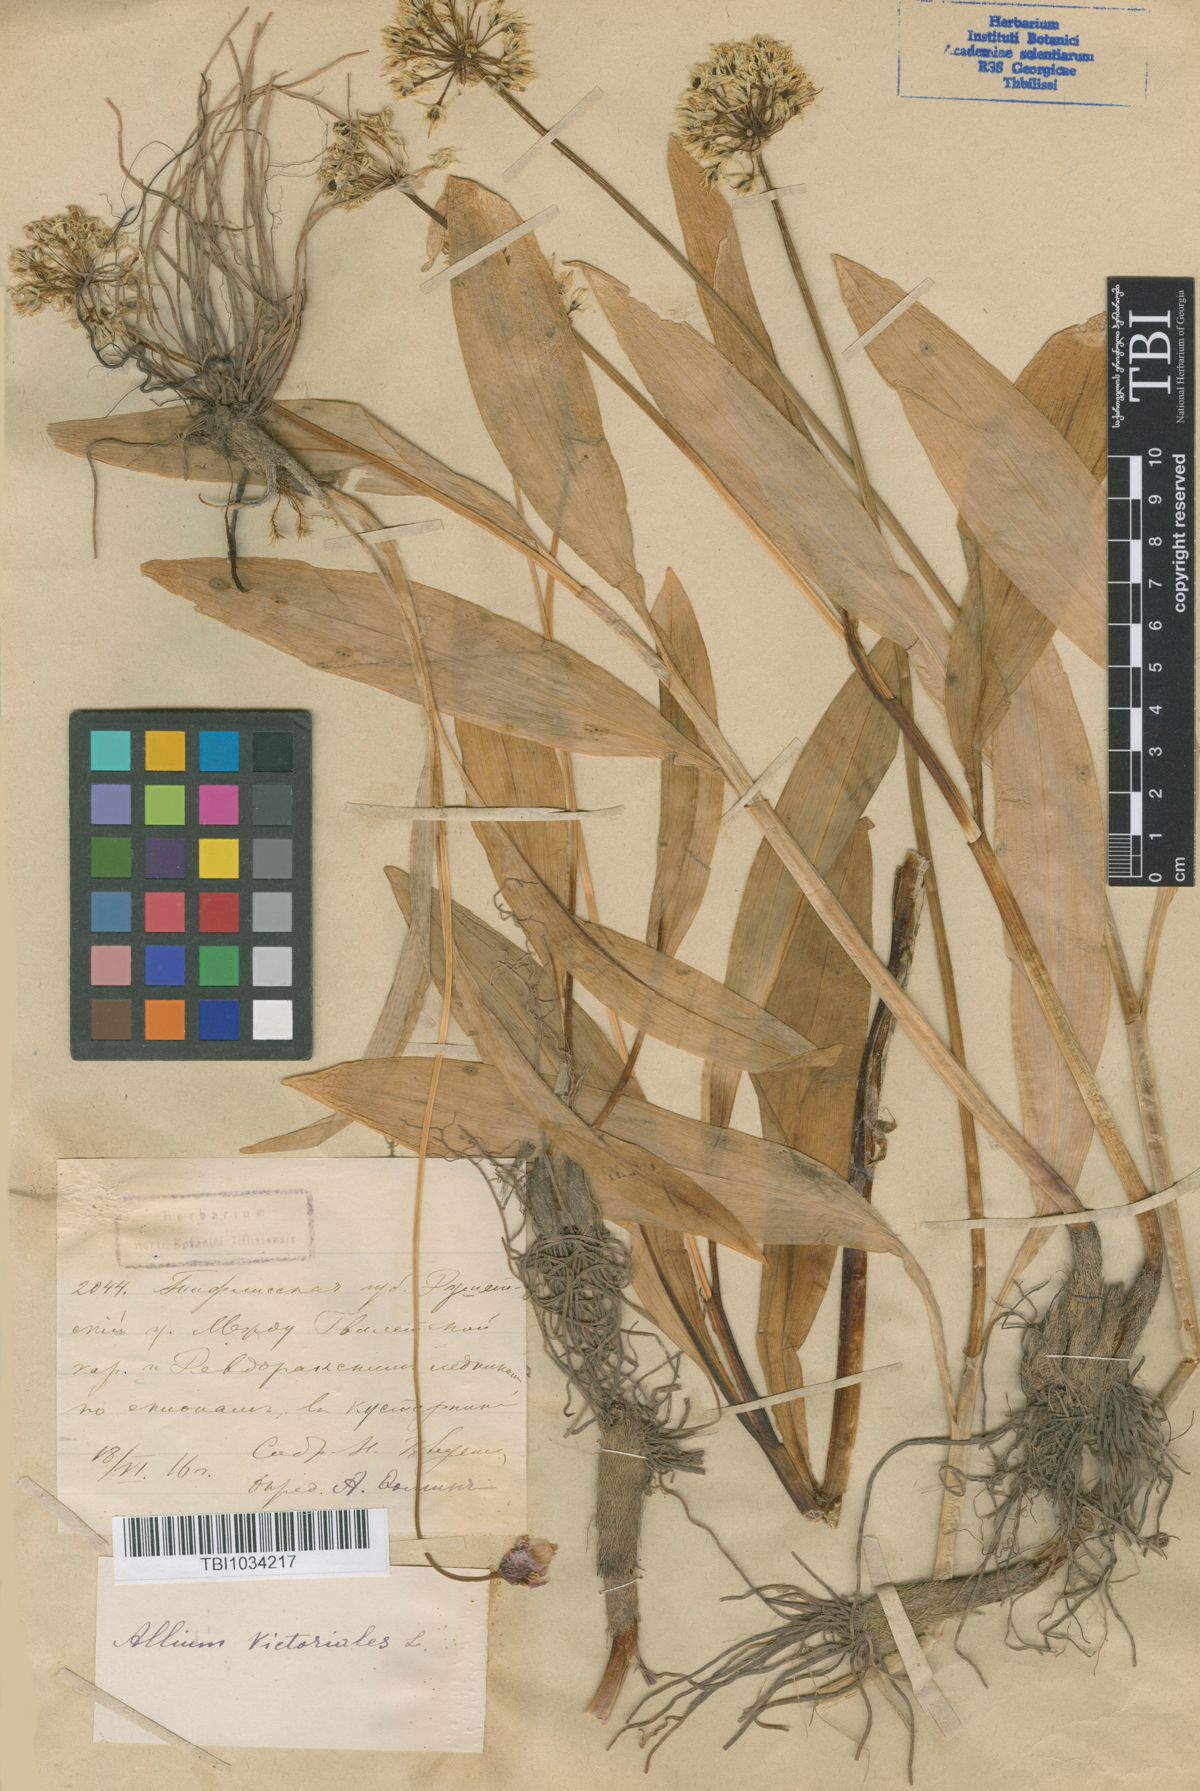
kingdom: Plantae
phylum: Tracheophyta
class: Liliopsida
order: Asparagales
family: Amaryllidaceae
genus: Allium
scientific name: Allium victorialis
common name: Alpine leek
